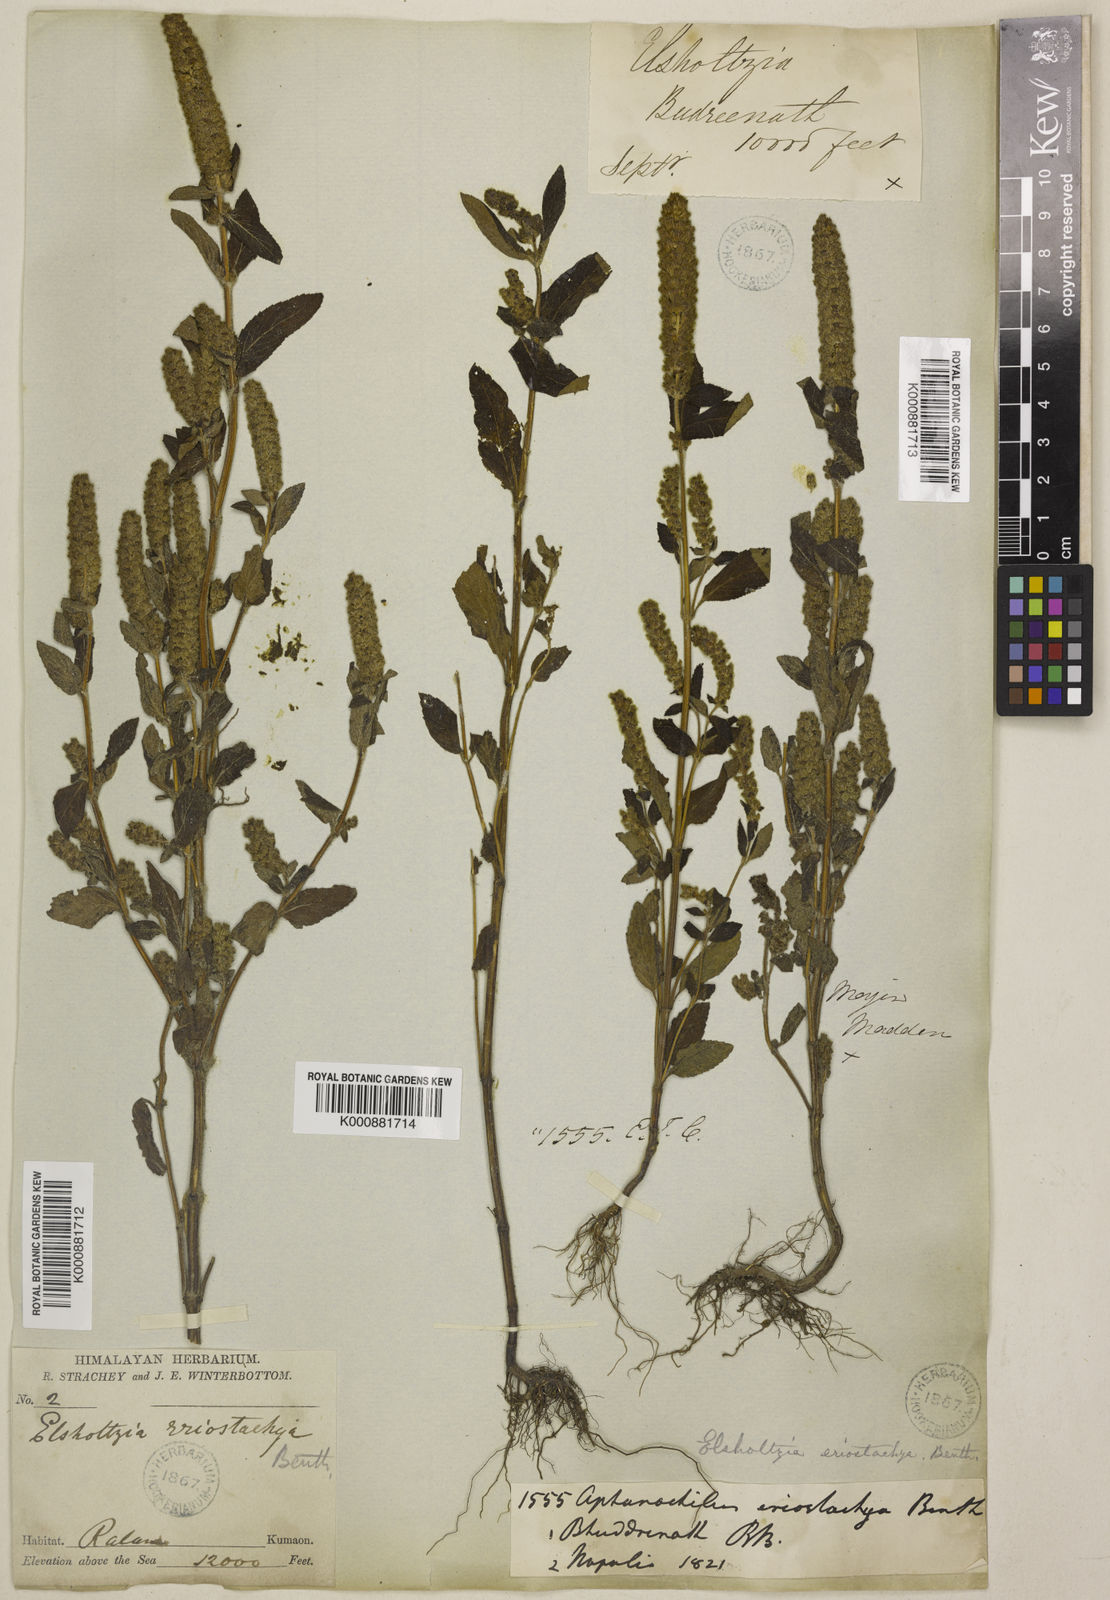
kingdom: Plantae
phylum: Tracheophyta
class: Magnoliopsida
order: Lamiales
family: Lamiaceae
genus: Elsholtzia
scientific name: Elsholtzia eriostachya
